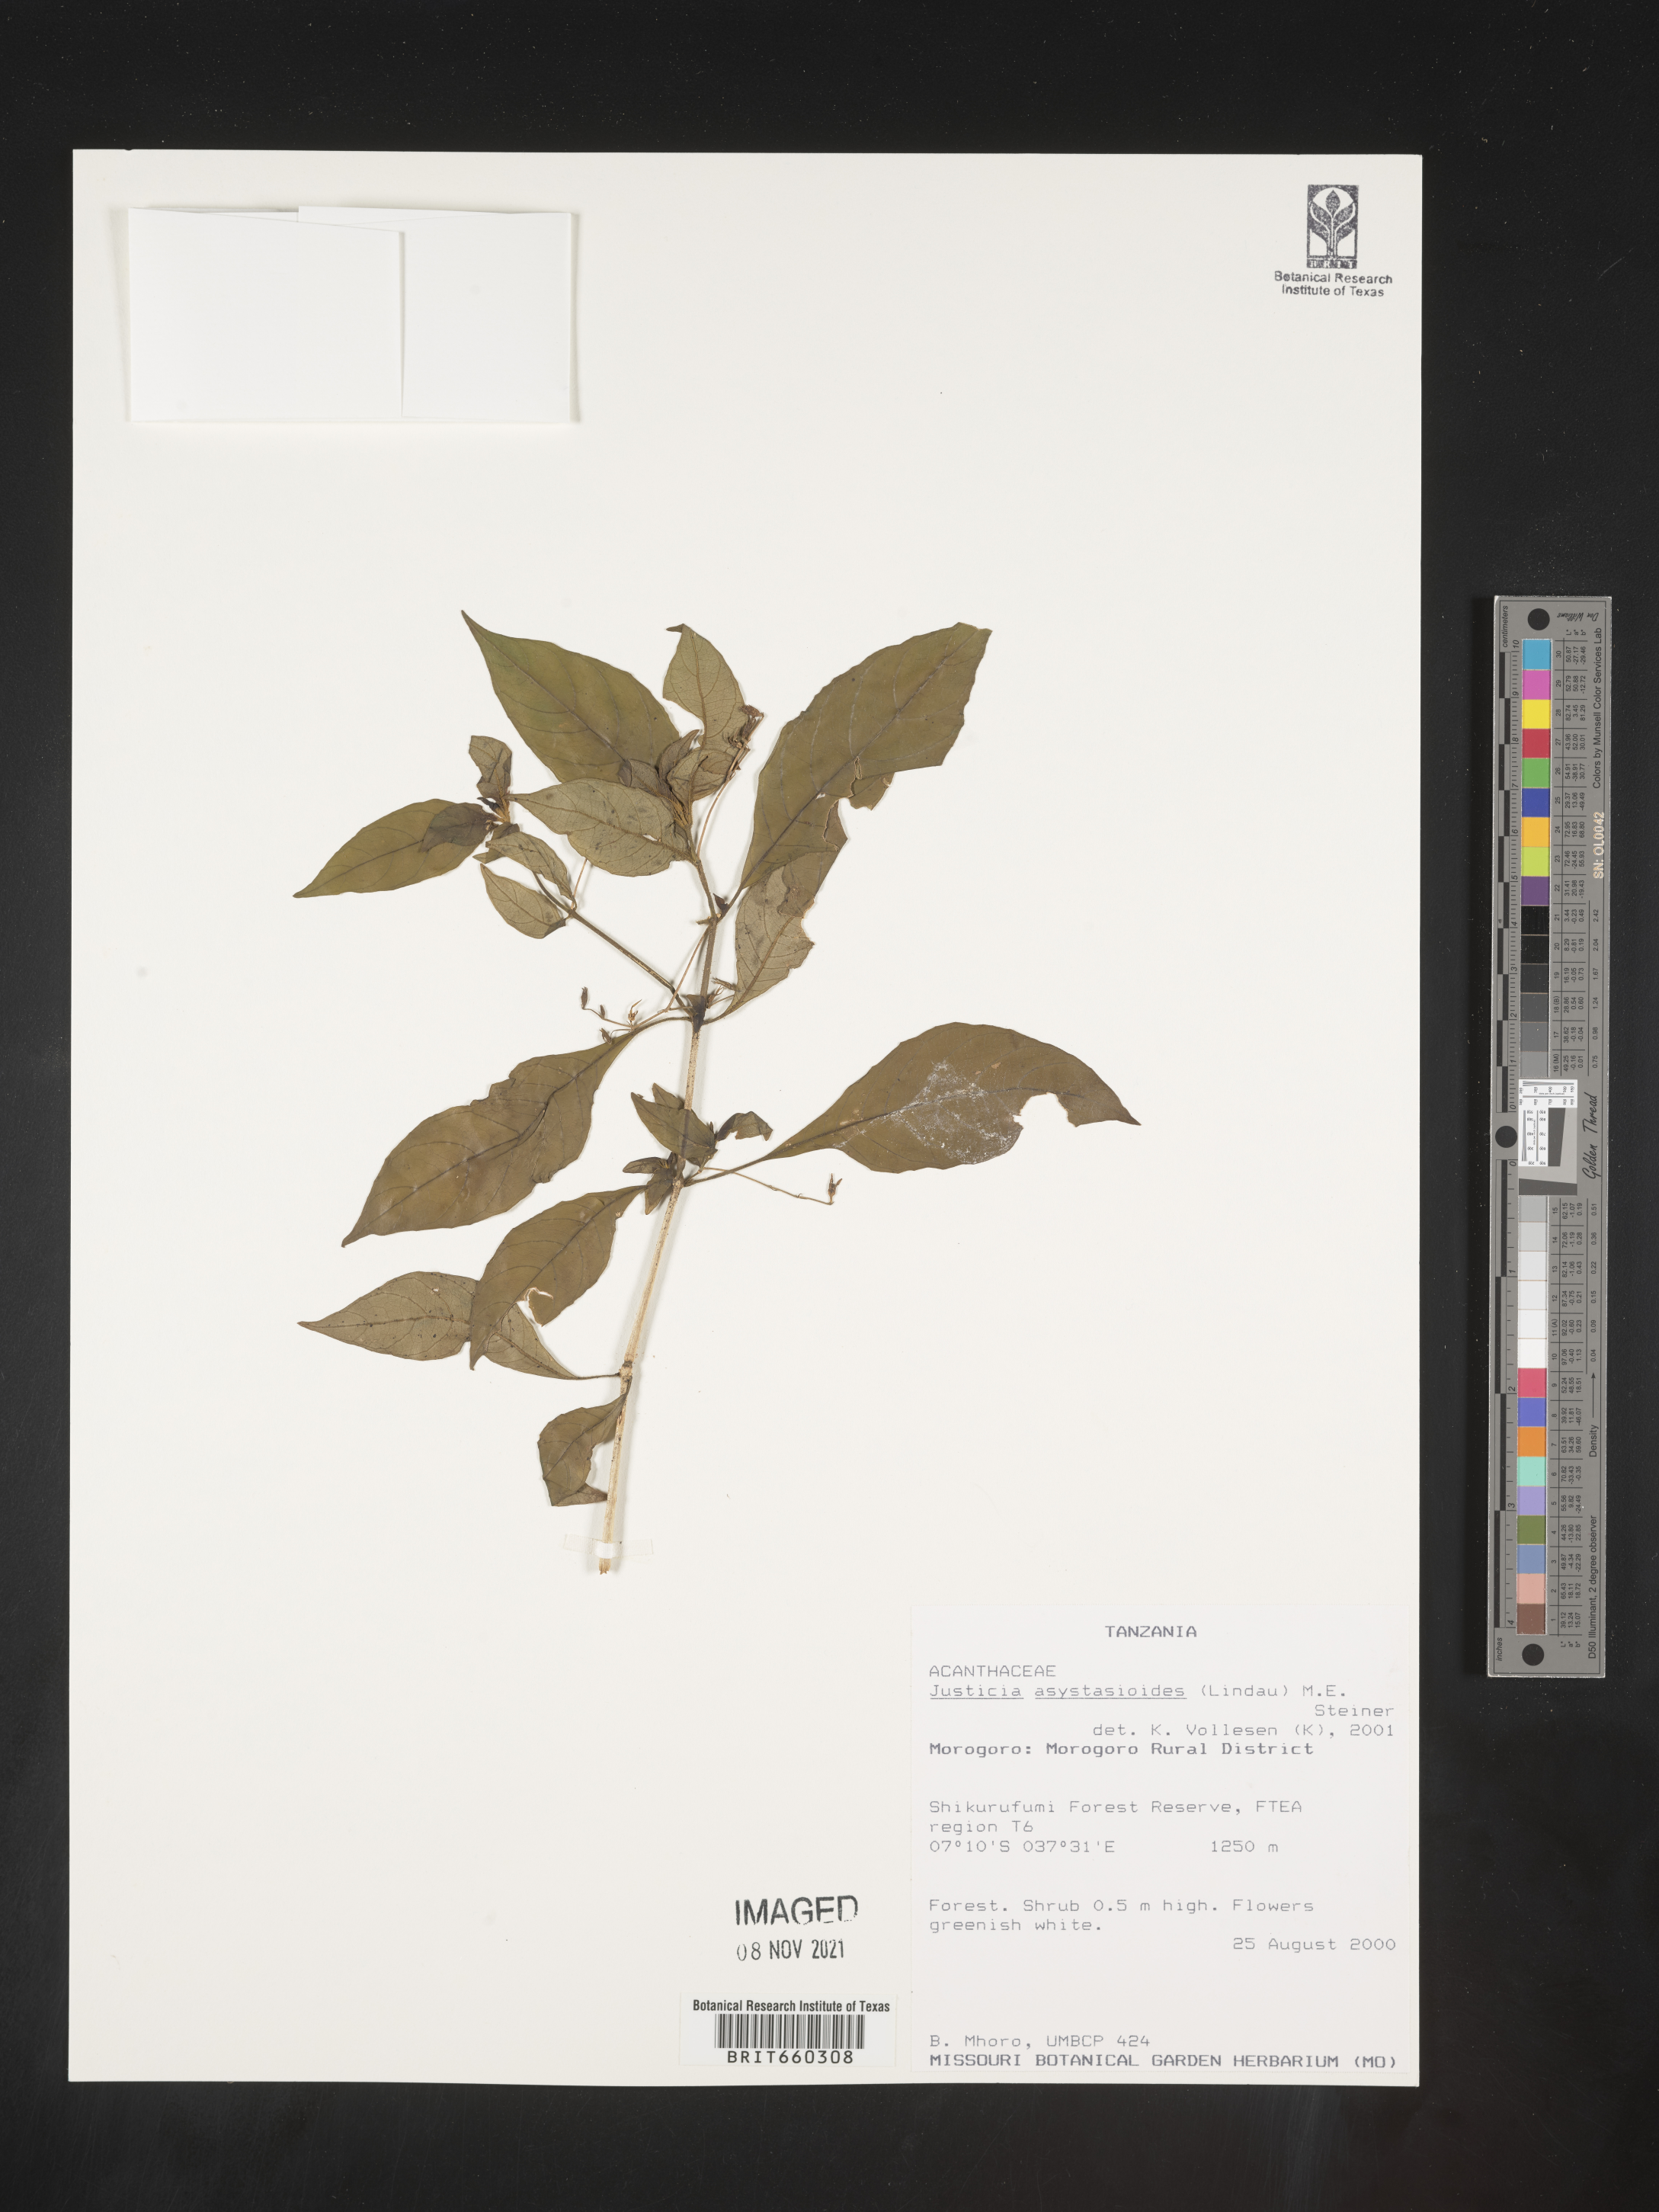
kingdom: Plantae
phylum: Tracheophyta
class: Magnoliopsida
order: Lamiales
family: Acanthaceae
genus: Justicia
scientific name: Justicia
